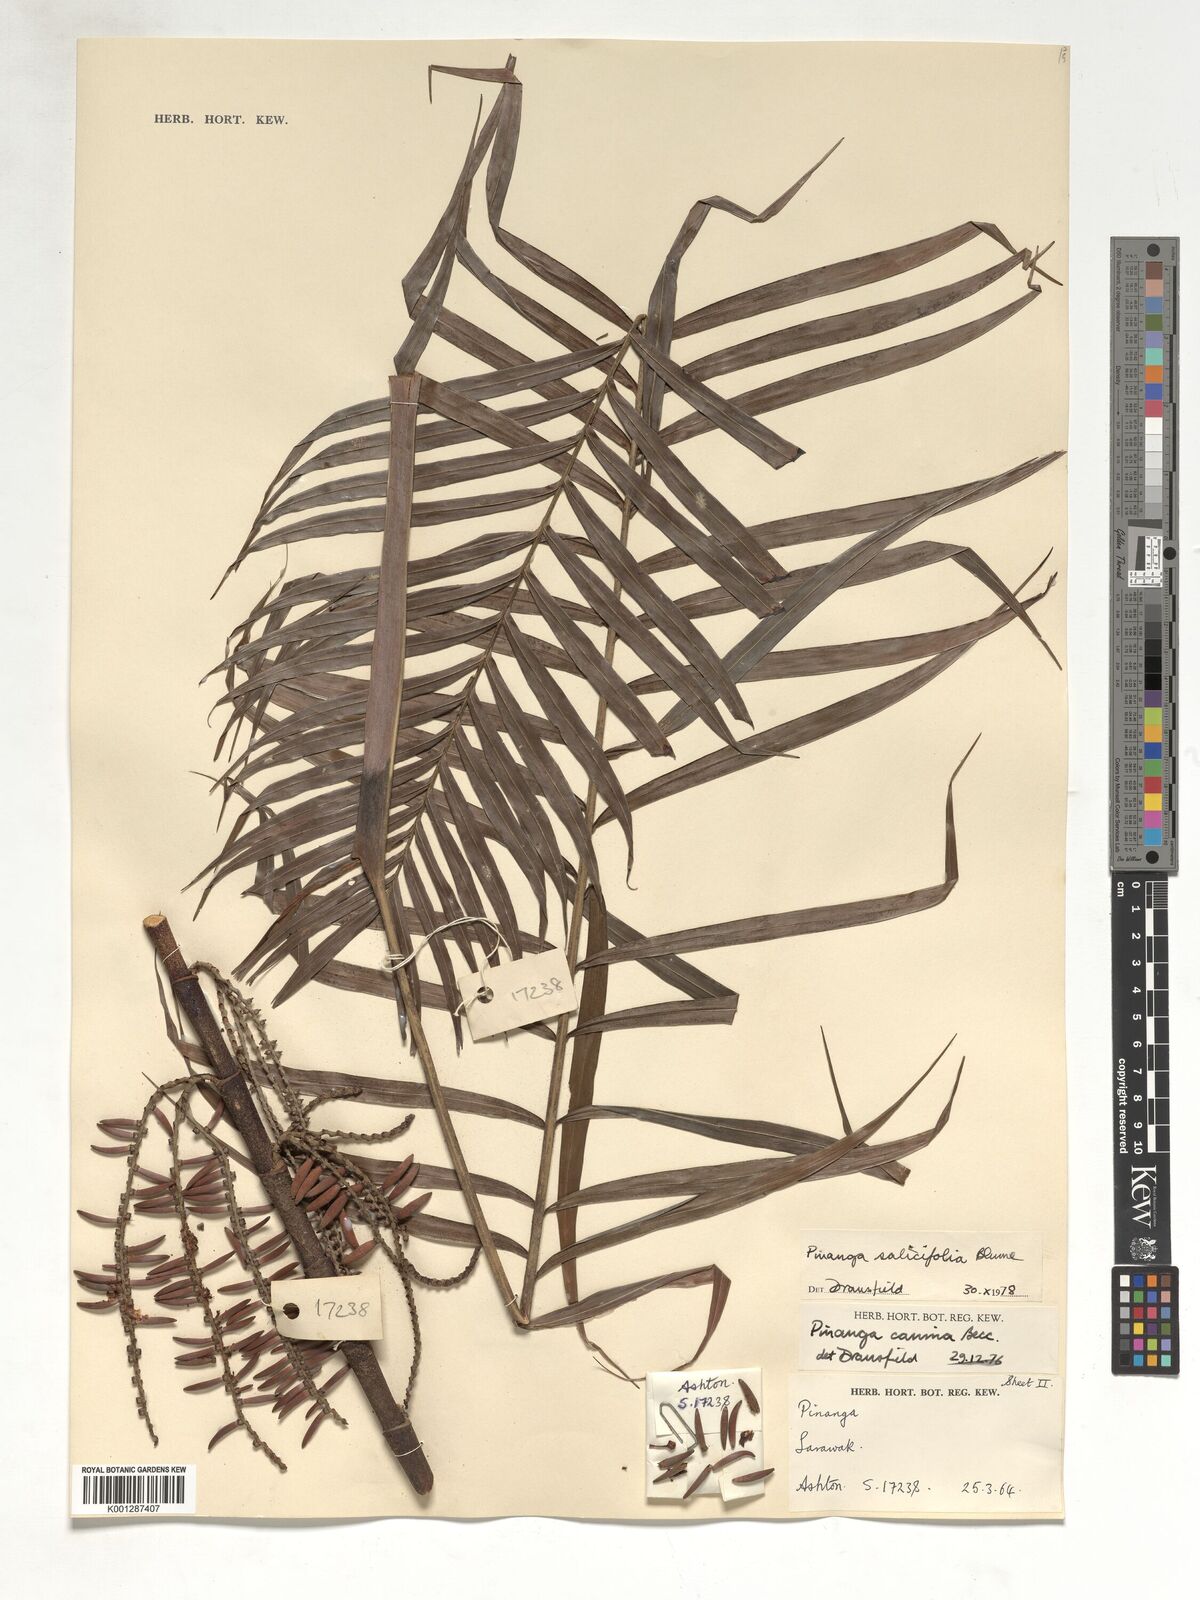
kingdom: Plantae
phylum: Tracheophyta
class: Liliopsida
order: Arecales
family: Arecaceae
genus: Pinanga
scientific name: Pinanga salicifolia
